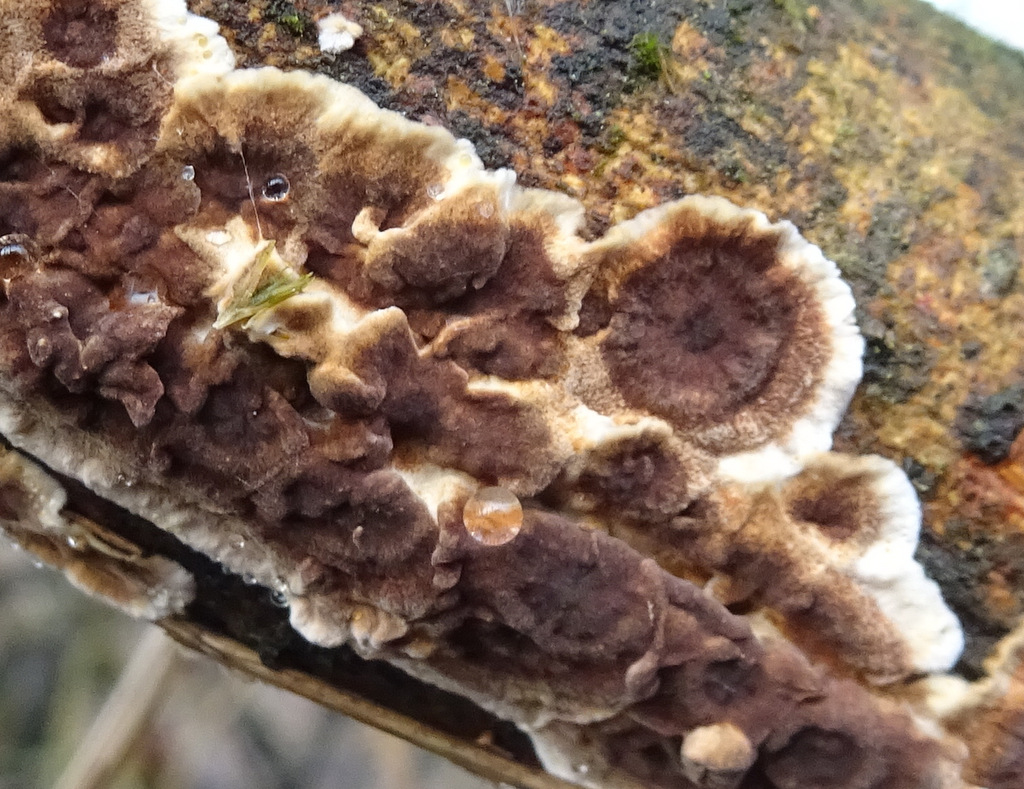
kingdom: Fungi
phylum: Basidiomycota
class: Agaricomycetes
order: Hymenochaetales
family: Hymenochaetaceae
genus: Hydnoporia
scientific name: Hydnoporia tabacina
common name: tobaksbrun ruslædersvamp
